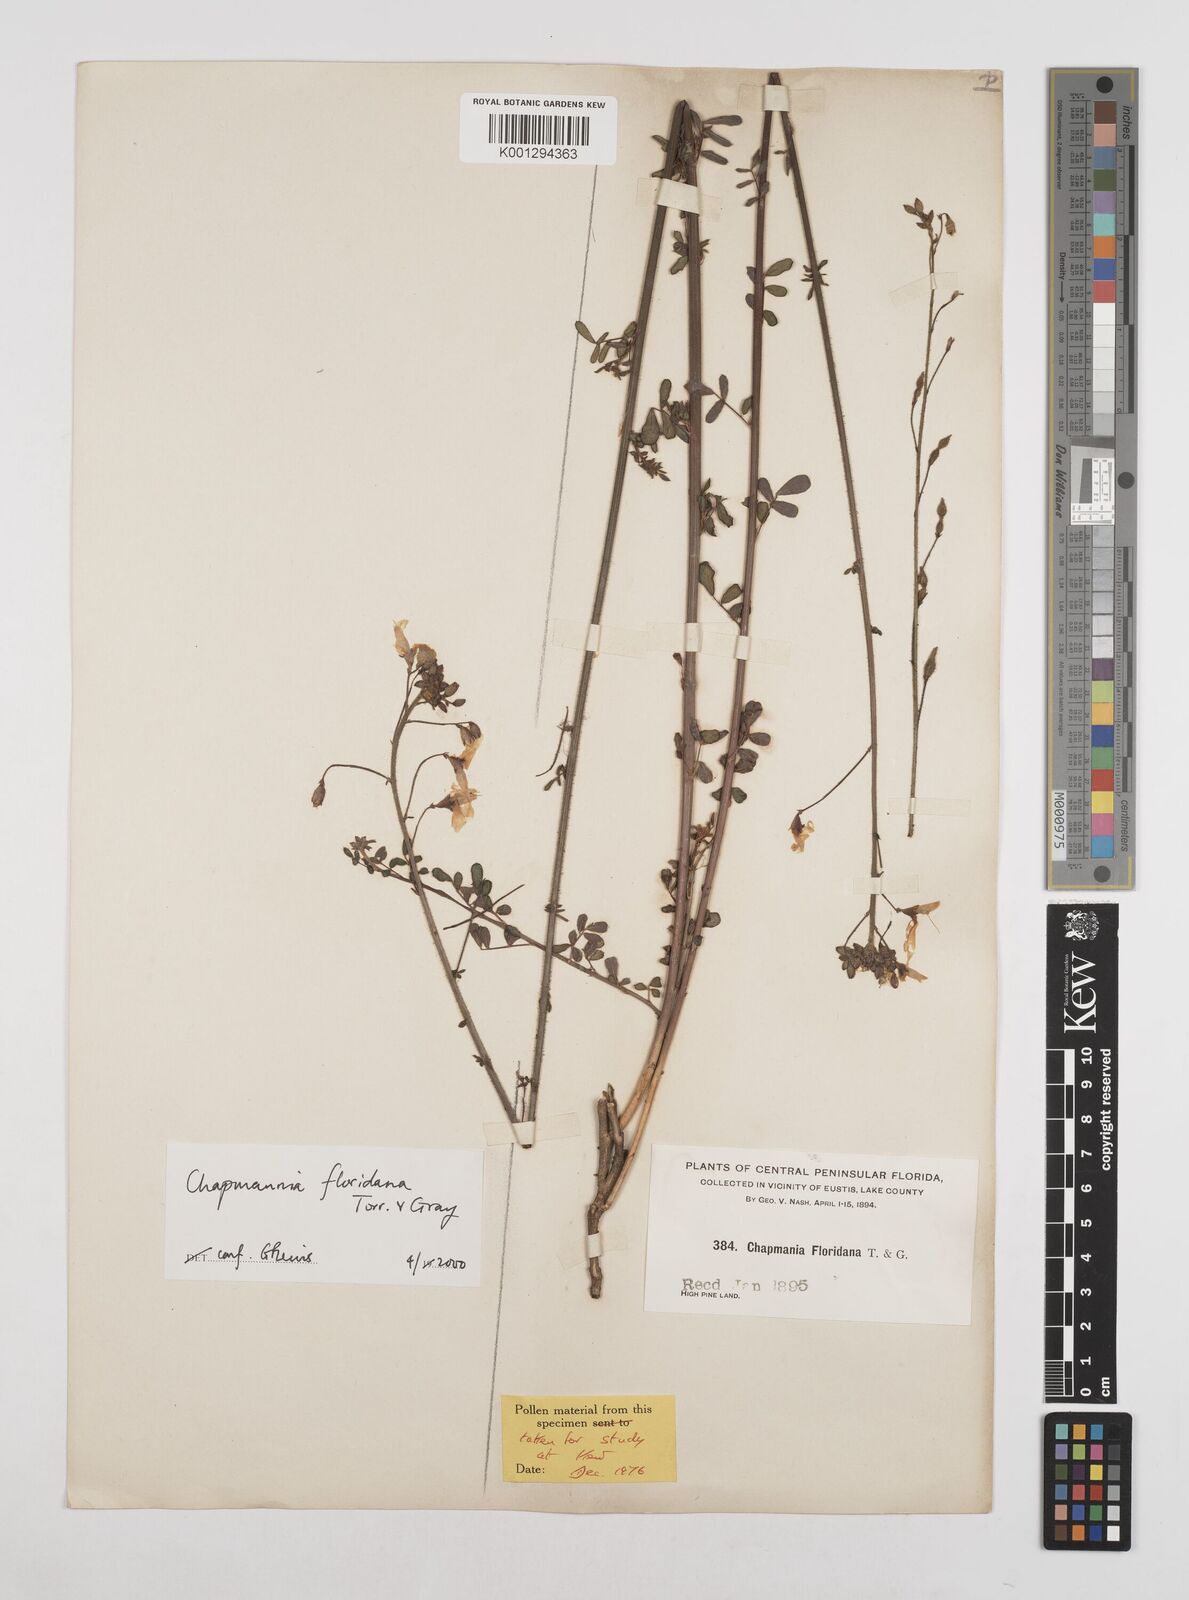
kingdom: Plantae
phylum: Tracheophyta
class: Magnoliopsida
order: Fabales
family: Fabaceae
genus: Chapmannia
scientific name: Chapmannia floridana
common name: Alicia
